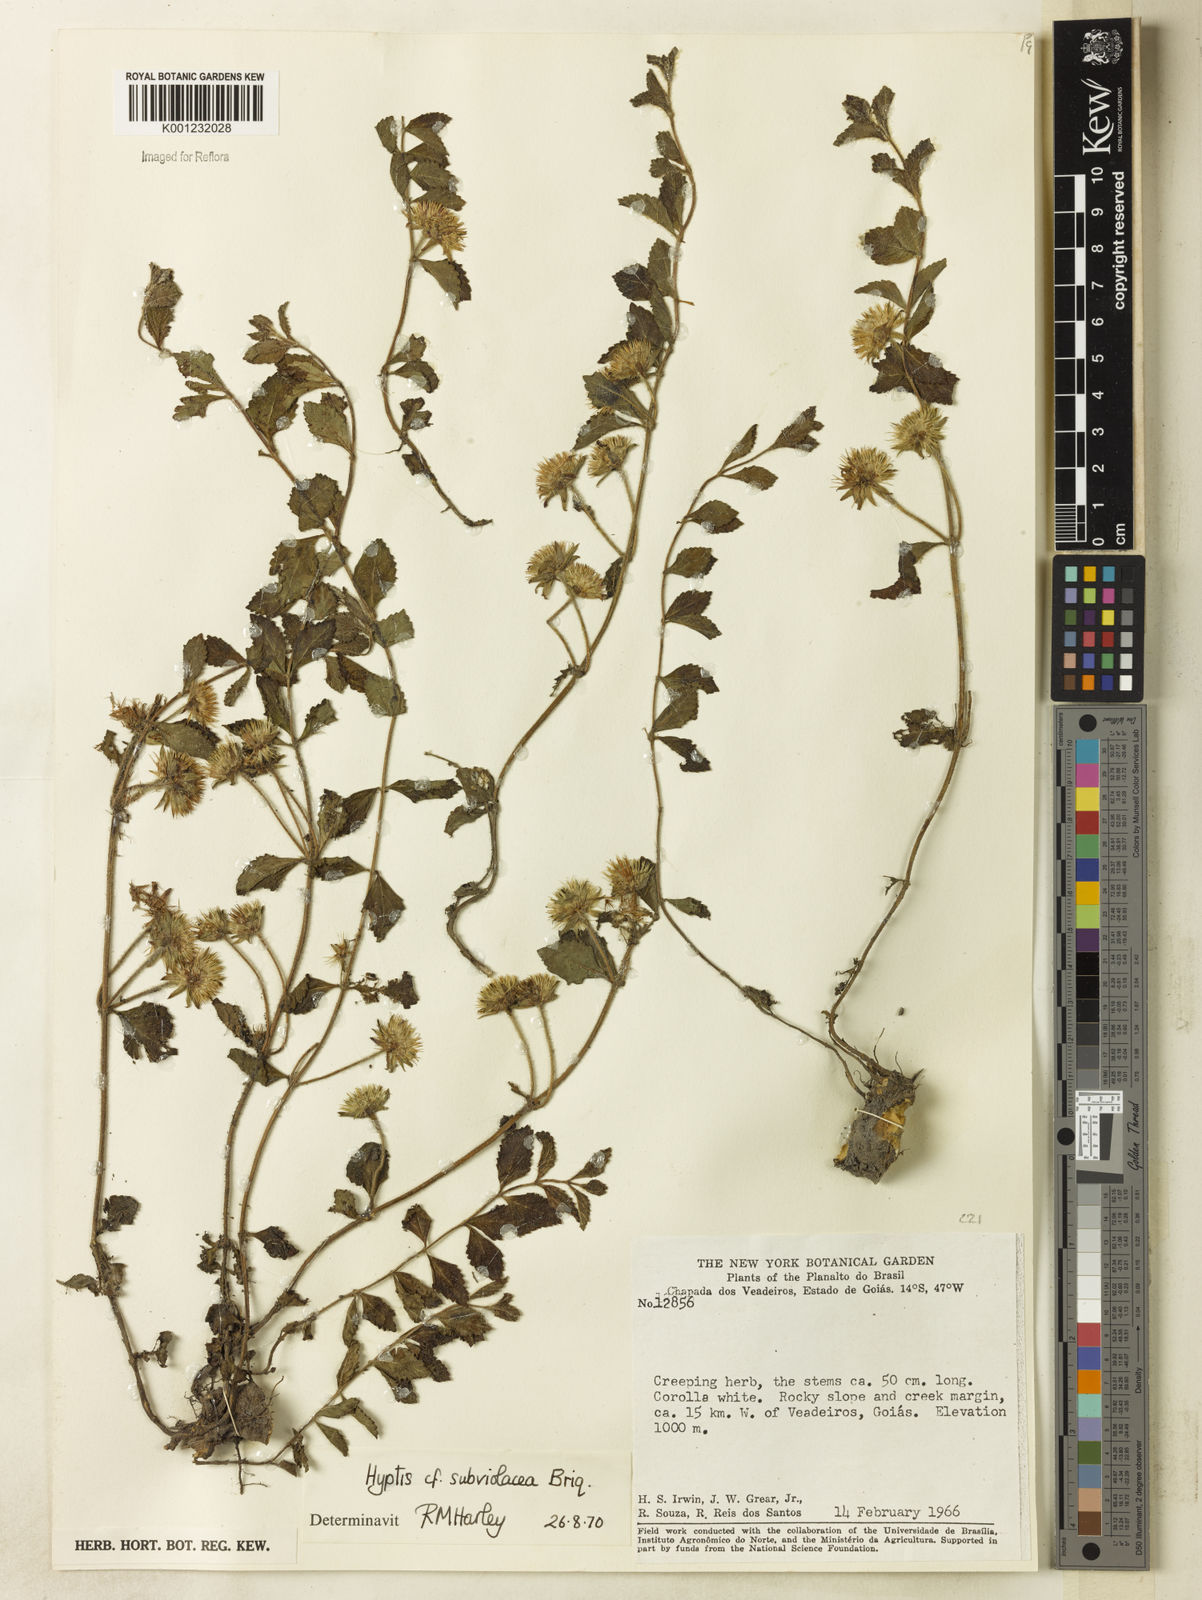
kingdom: Plantae
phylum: Tracheophyta
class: Magnoliopsida
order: Lamiales
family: Lamiaceae
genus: Hyptis
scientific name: Hyptis subviolacea
